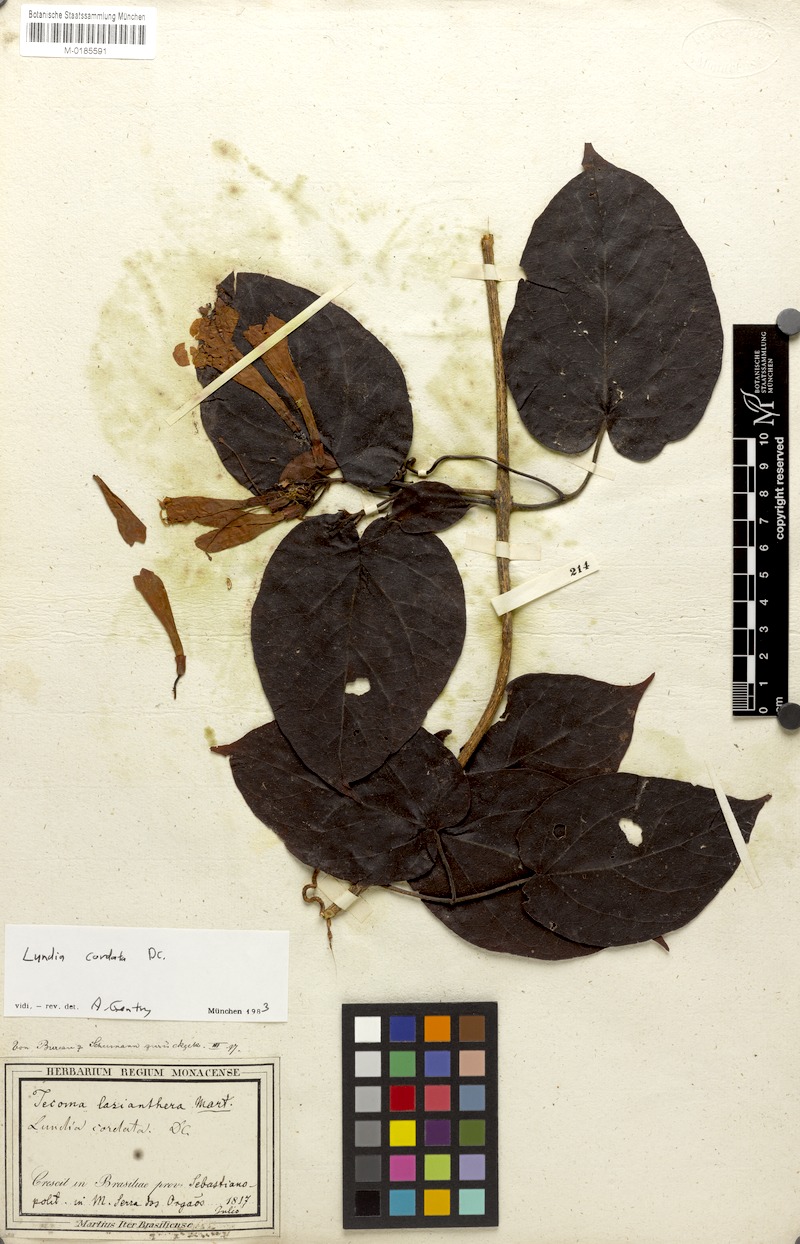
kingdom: Plantae
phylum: Tracheophyta
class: Magnoliopsida
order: Lamiales
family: Bignoniaceae
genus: Lundia
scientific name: Lundia longa
